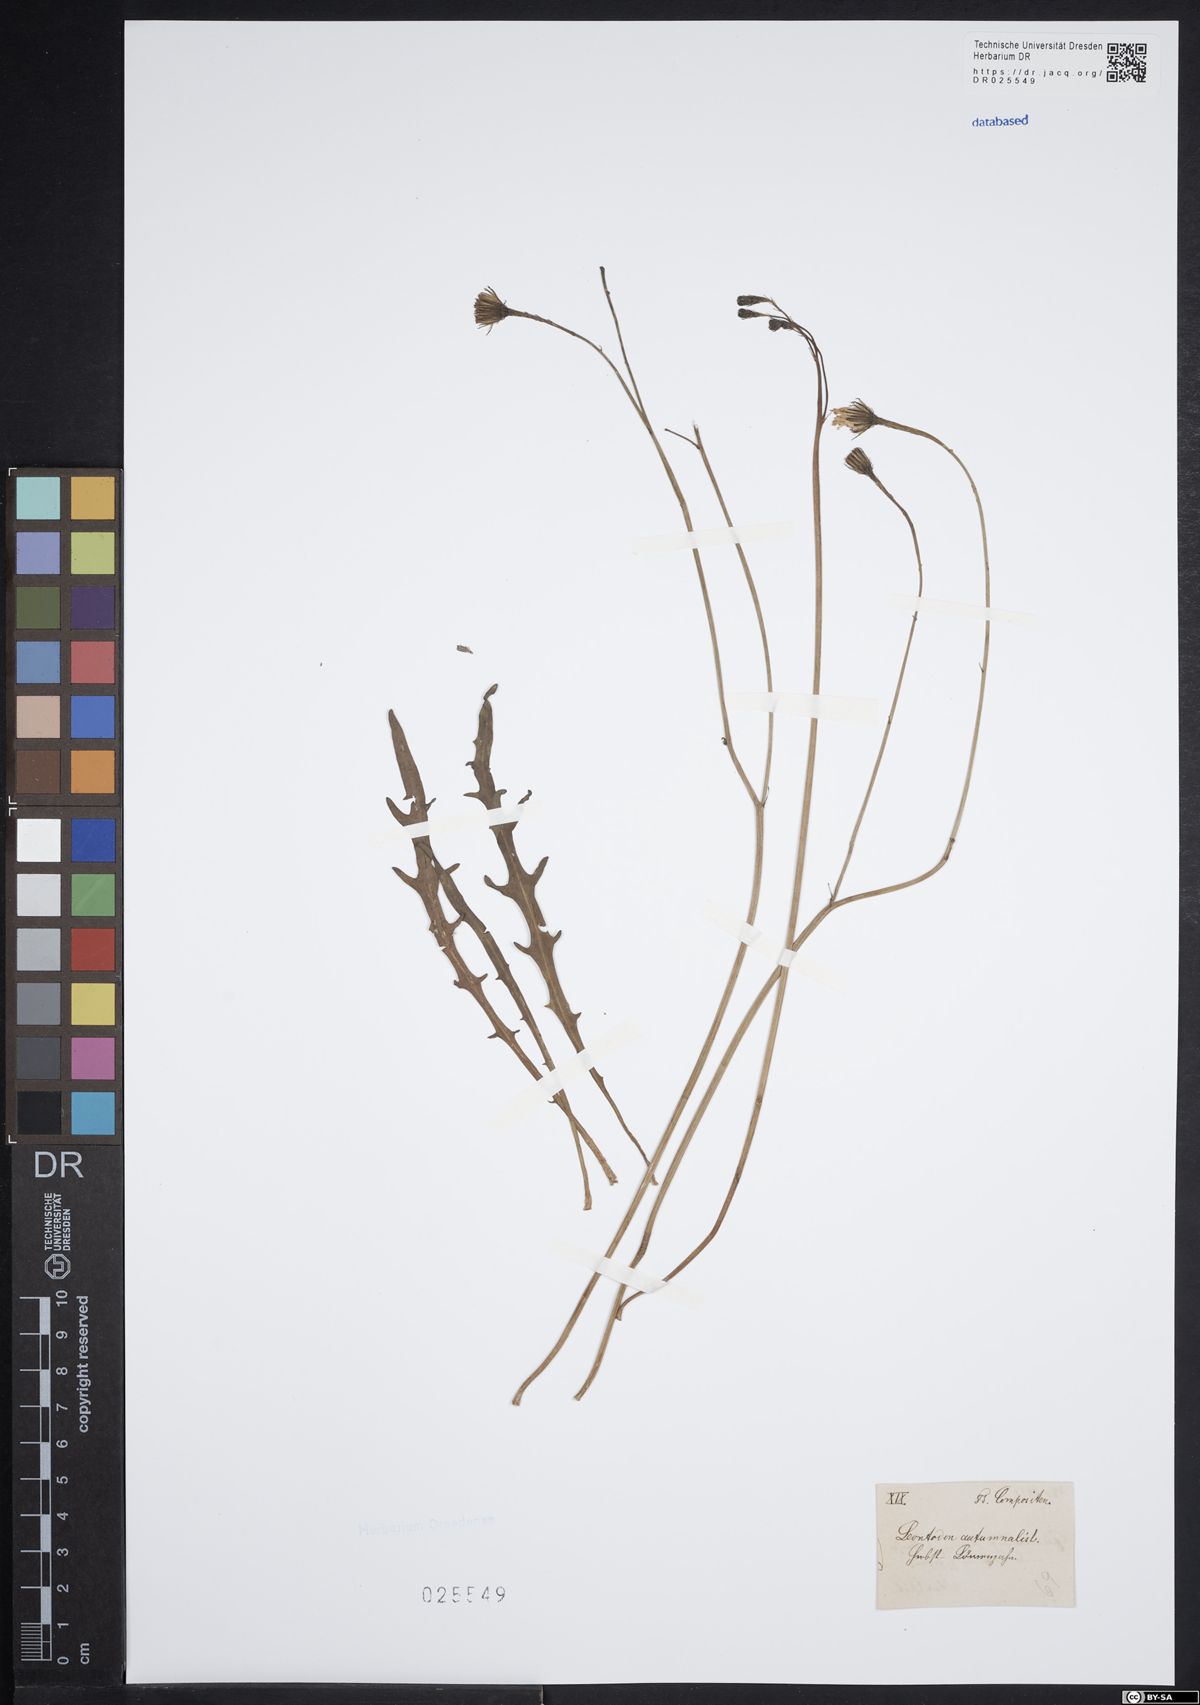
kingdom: Plantae
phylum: Tracheophyta
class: Magnoliopsida
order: Asterales
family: Asteraceae
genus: Scorzoneroides
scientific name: Scorzoneroides autumnalis
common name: Autumn hawkbit
